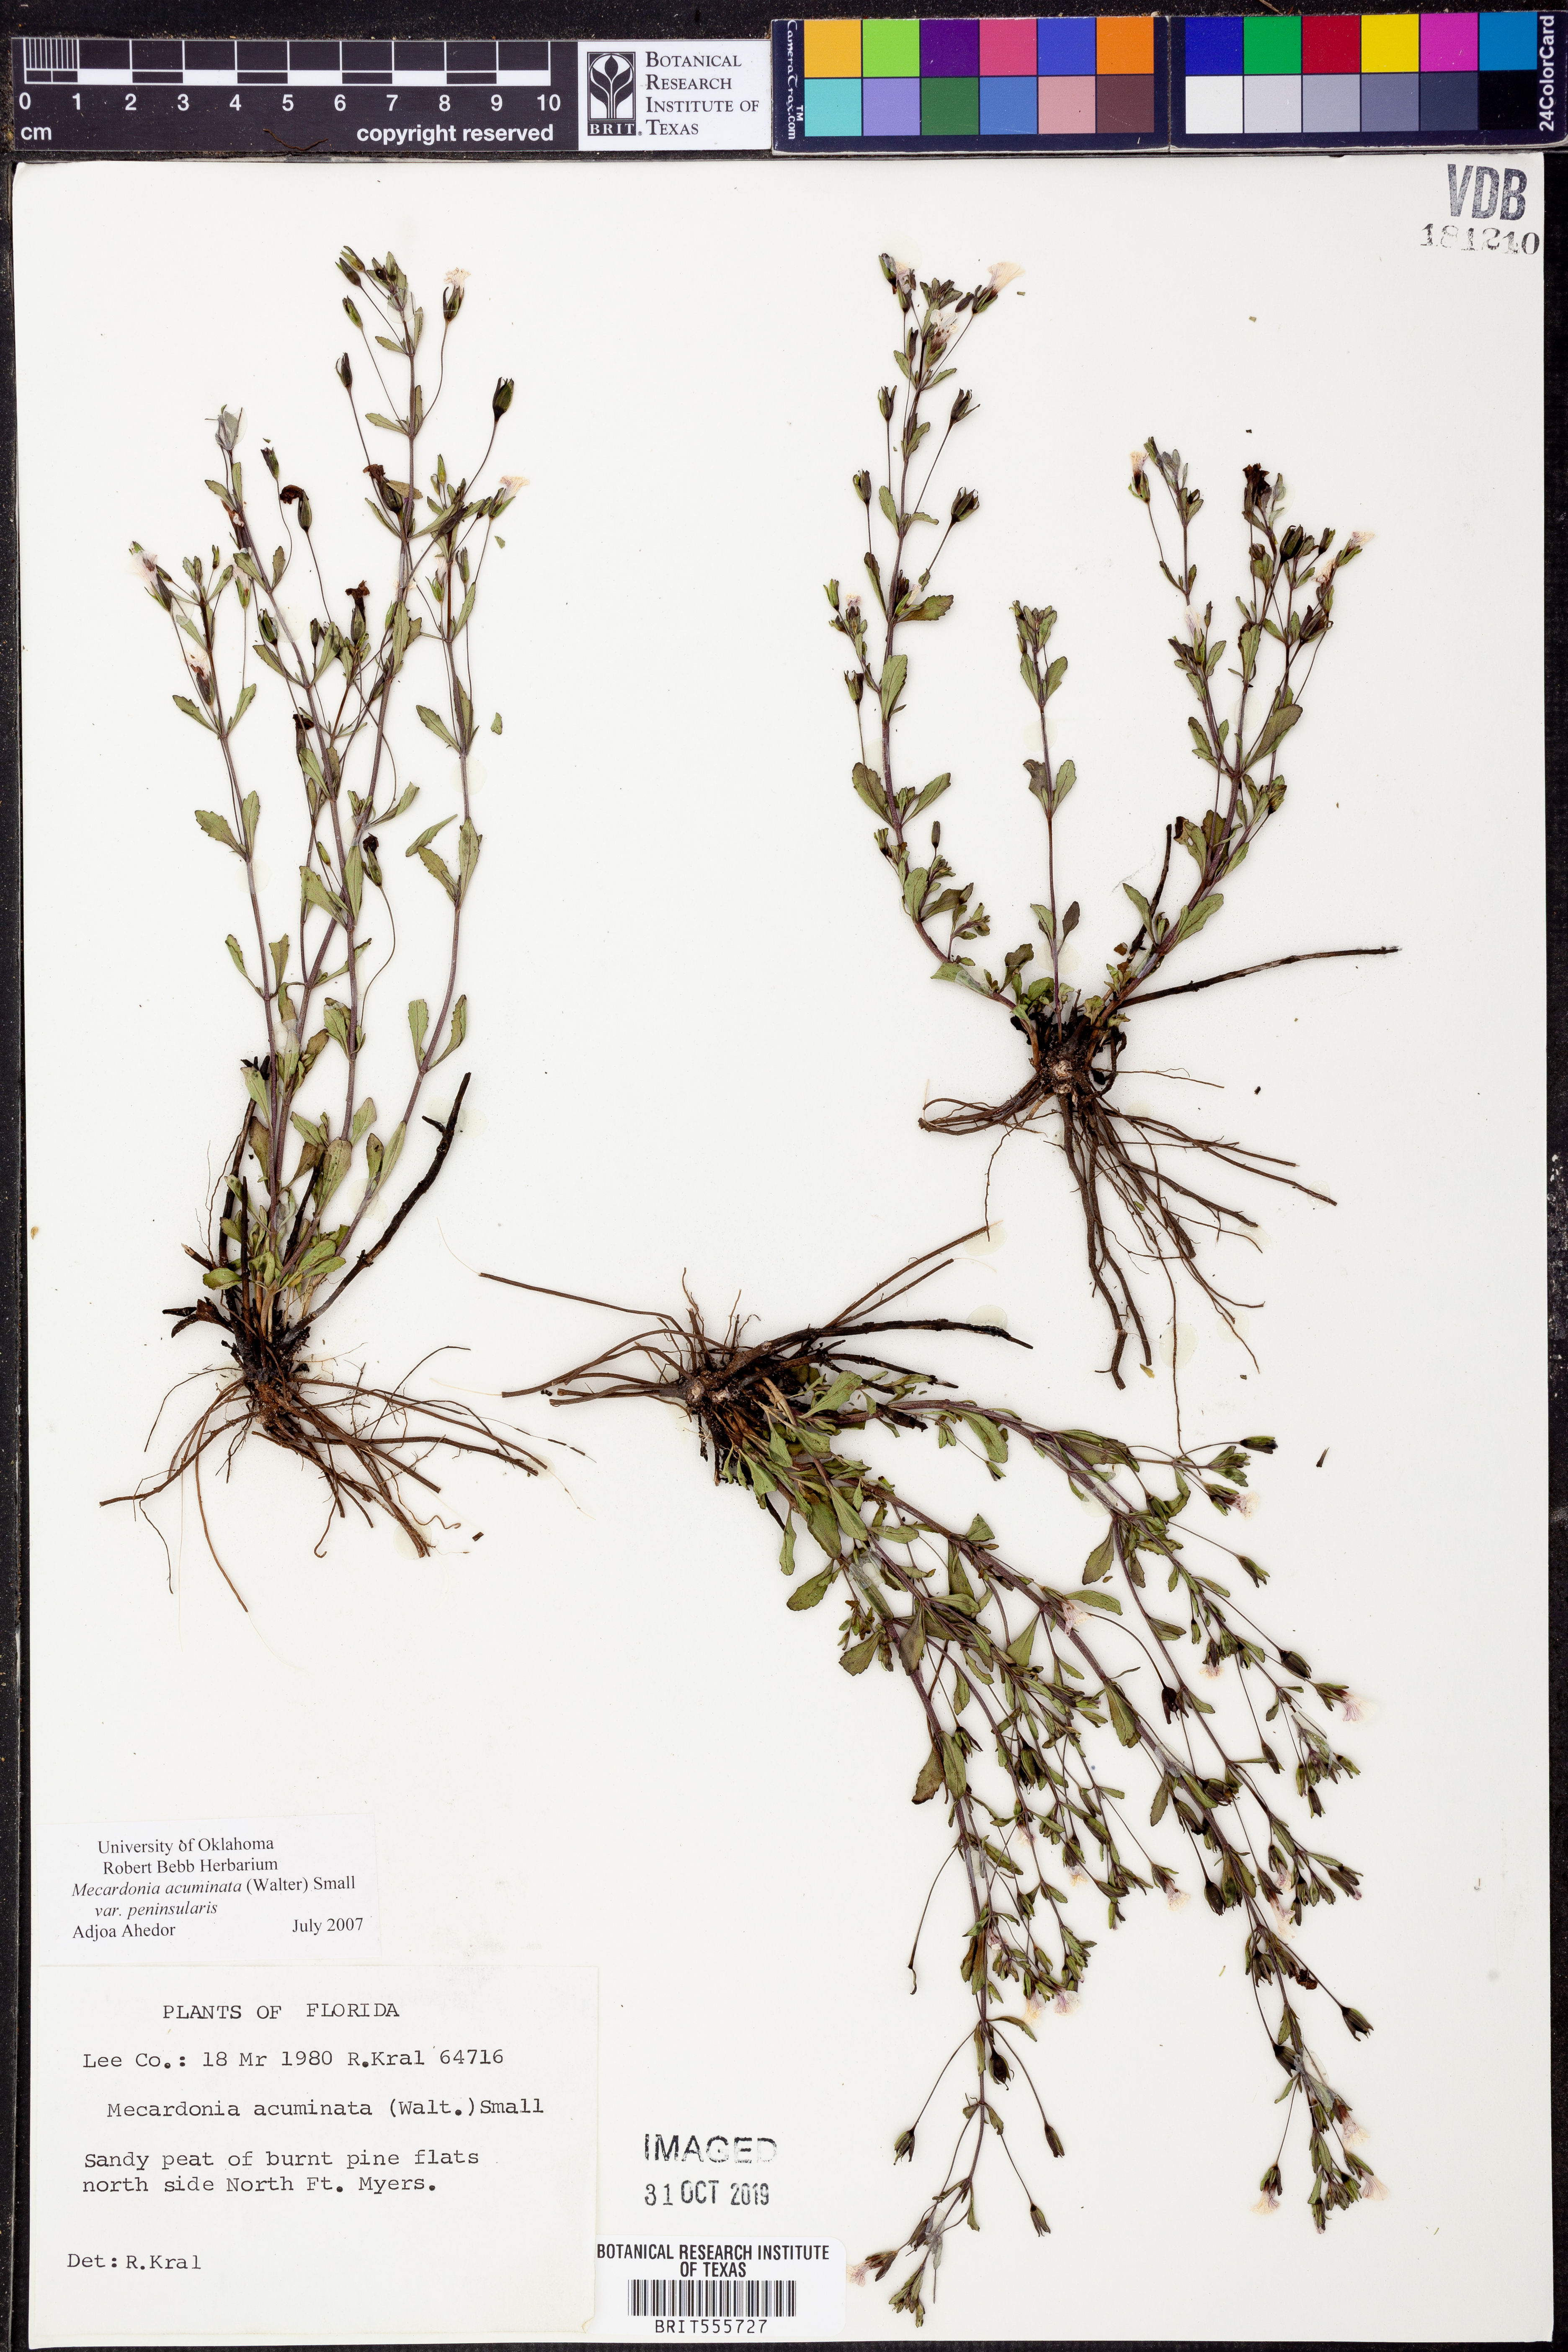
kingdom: Plantae
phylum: Tracheophyta
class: Magnoliopsida
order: Lamiales
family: Plantaginaceae
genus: Mecardonia
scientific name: Mecardonia acuminata
